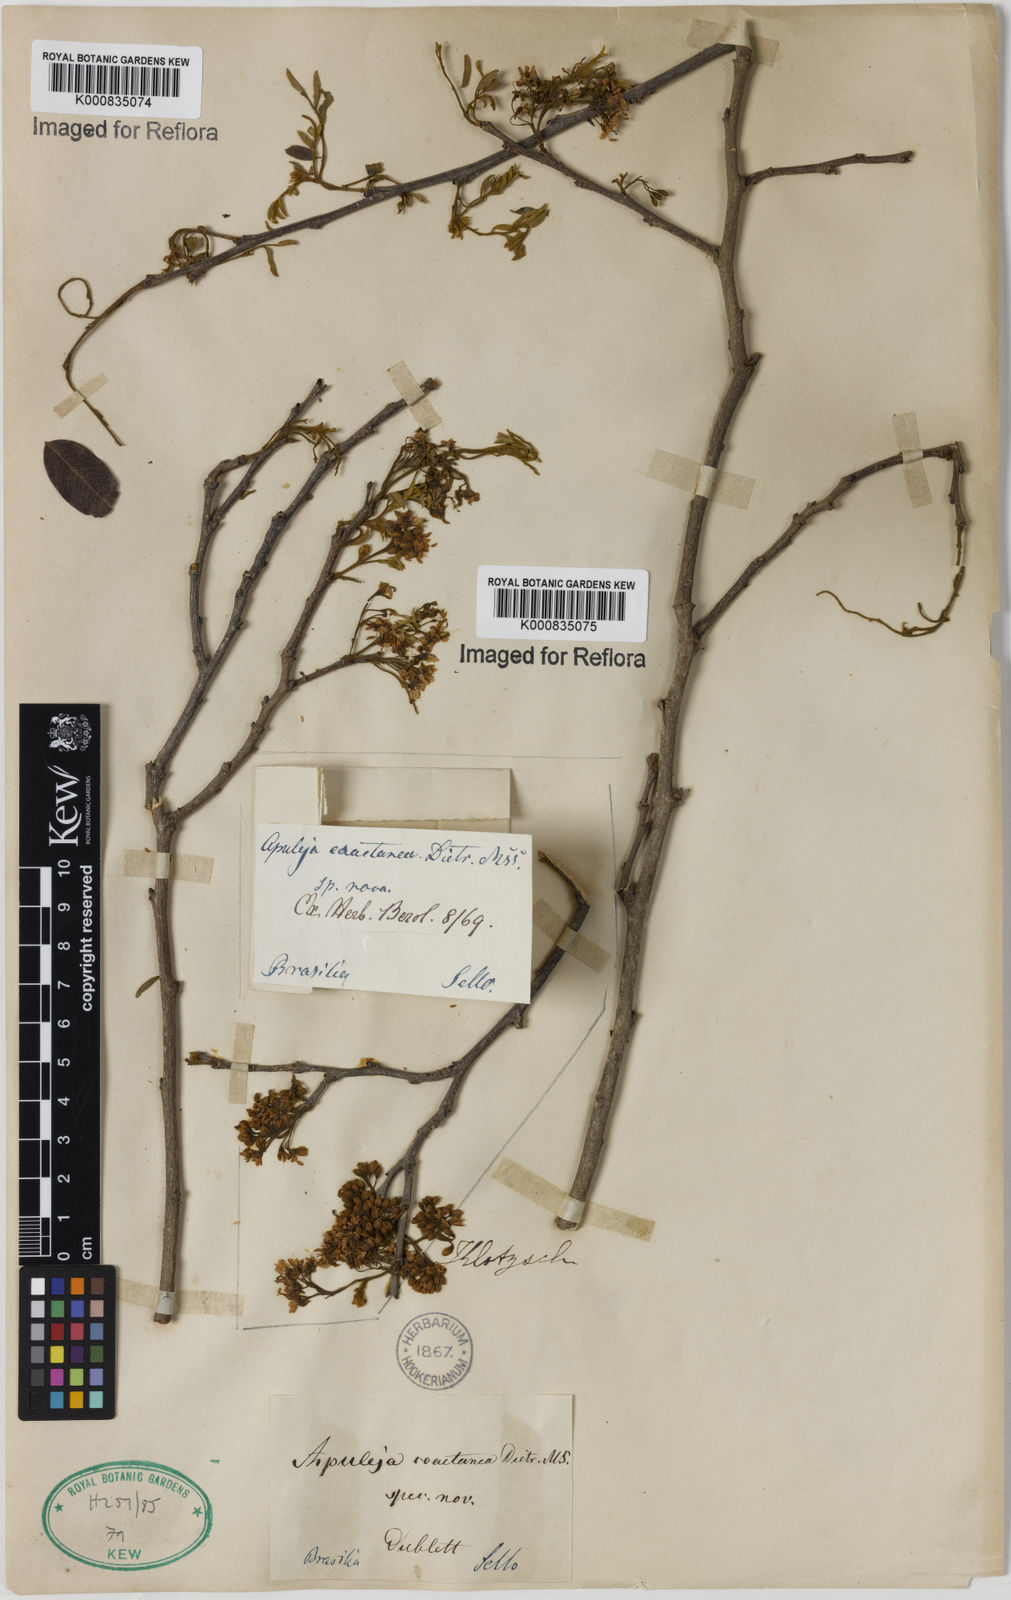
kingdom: Plantae
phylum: Tracheophyta
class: Magnoliopsida
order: Asterales
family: Asteraceae
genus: Berkheya
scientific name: Berkheya
